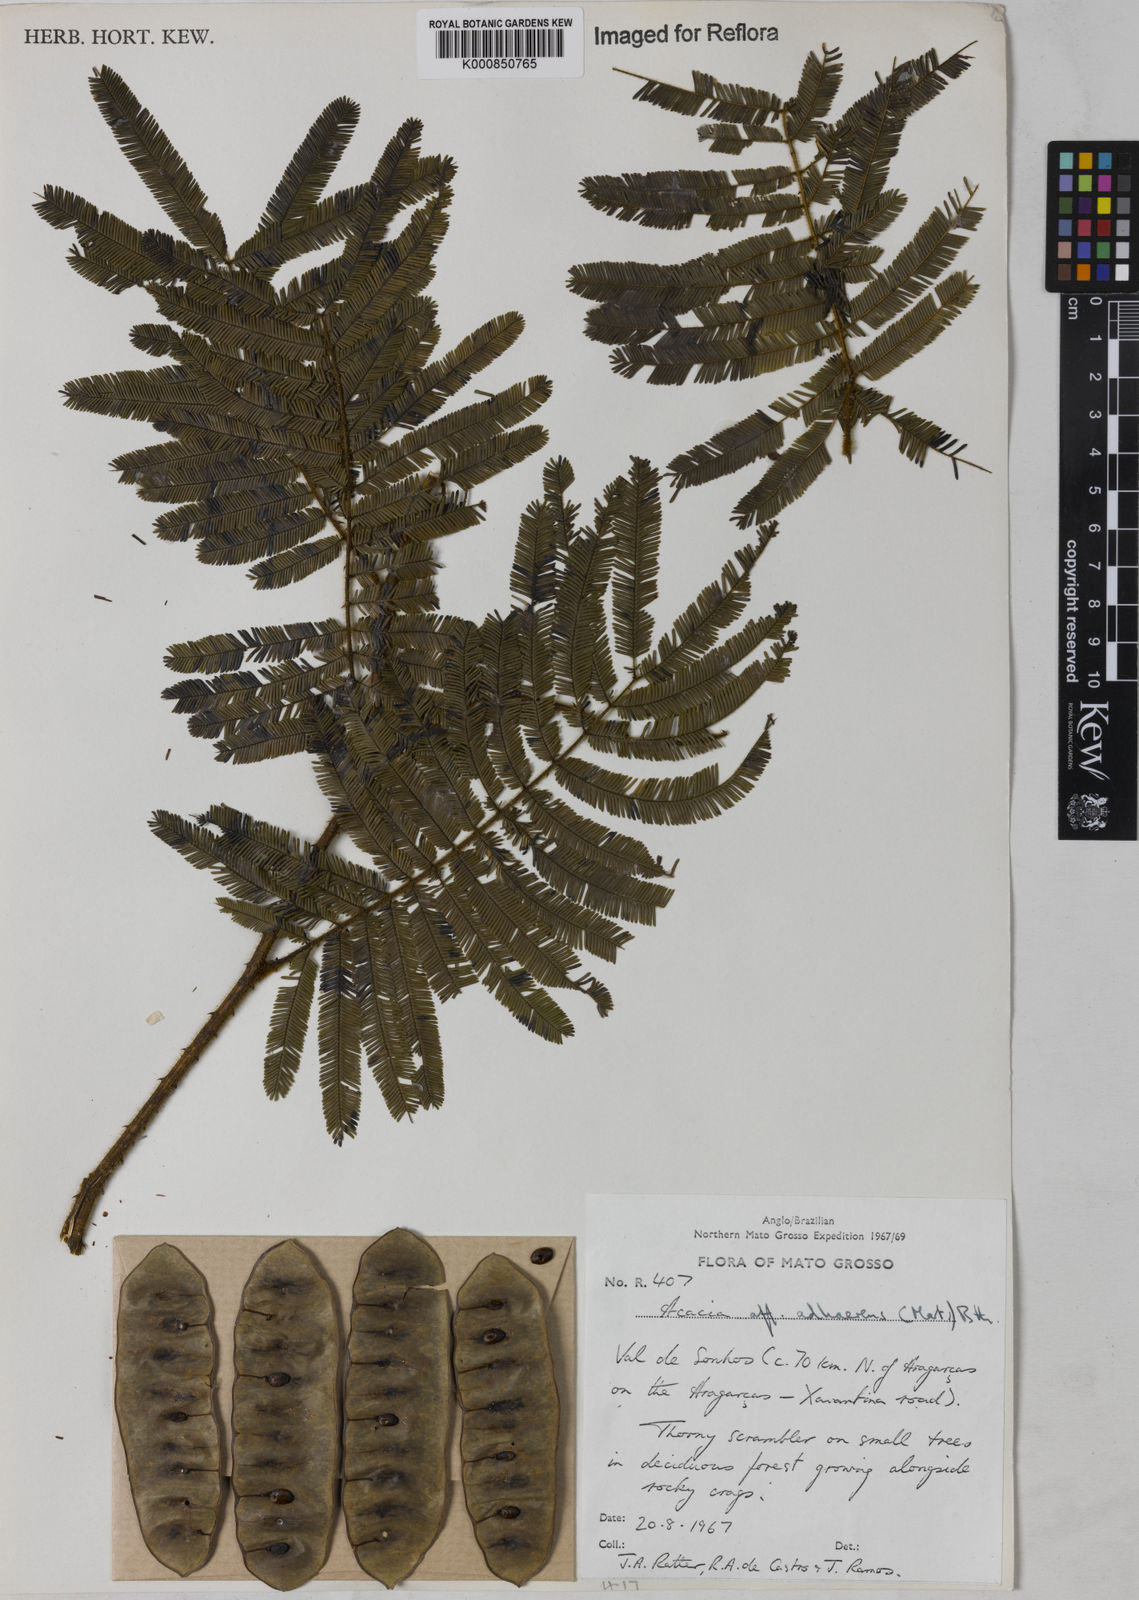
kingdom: Plantae
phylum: Tracheophyta
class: Magnoliopsida
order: Fabales
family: Fabaceae
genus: Senegalia
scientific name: Senegalia martiusiana
